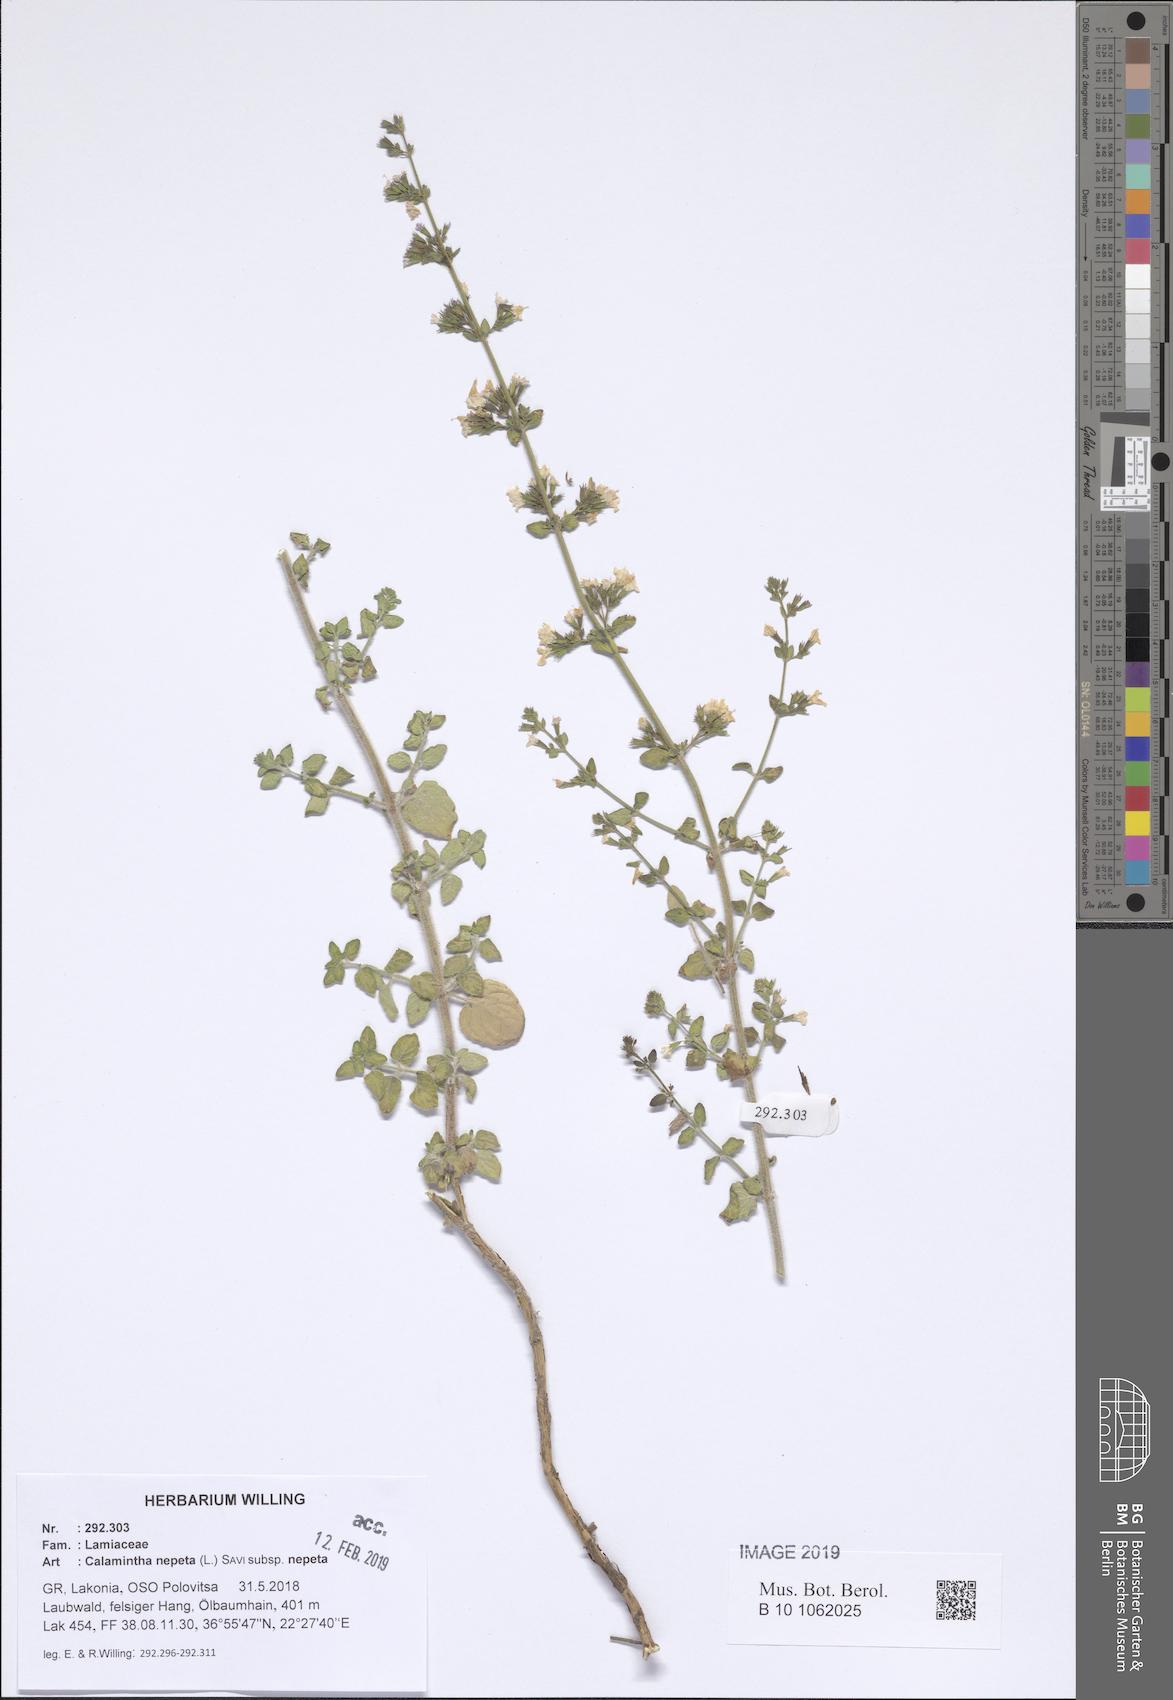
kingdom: Plantae
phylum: Tracheophyta
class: Magnoliopsida
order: Lamiales
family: Lamiaceae
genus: Clinopodium
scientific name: Clinopodium nepeta
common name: Lesser calamint
